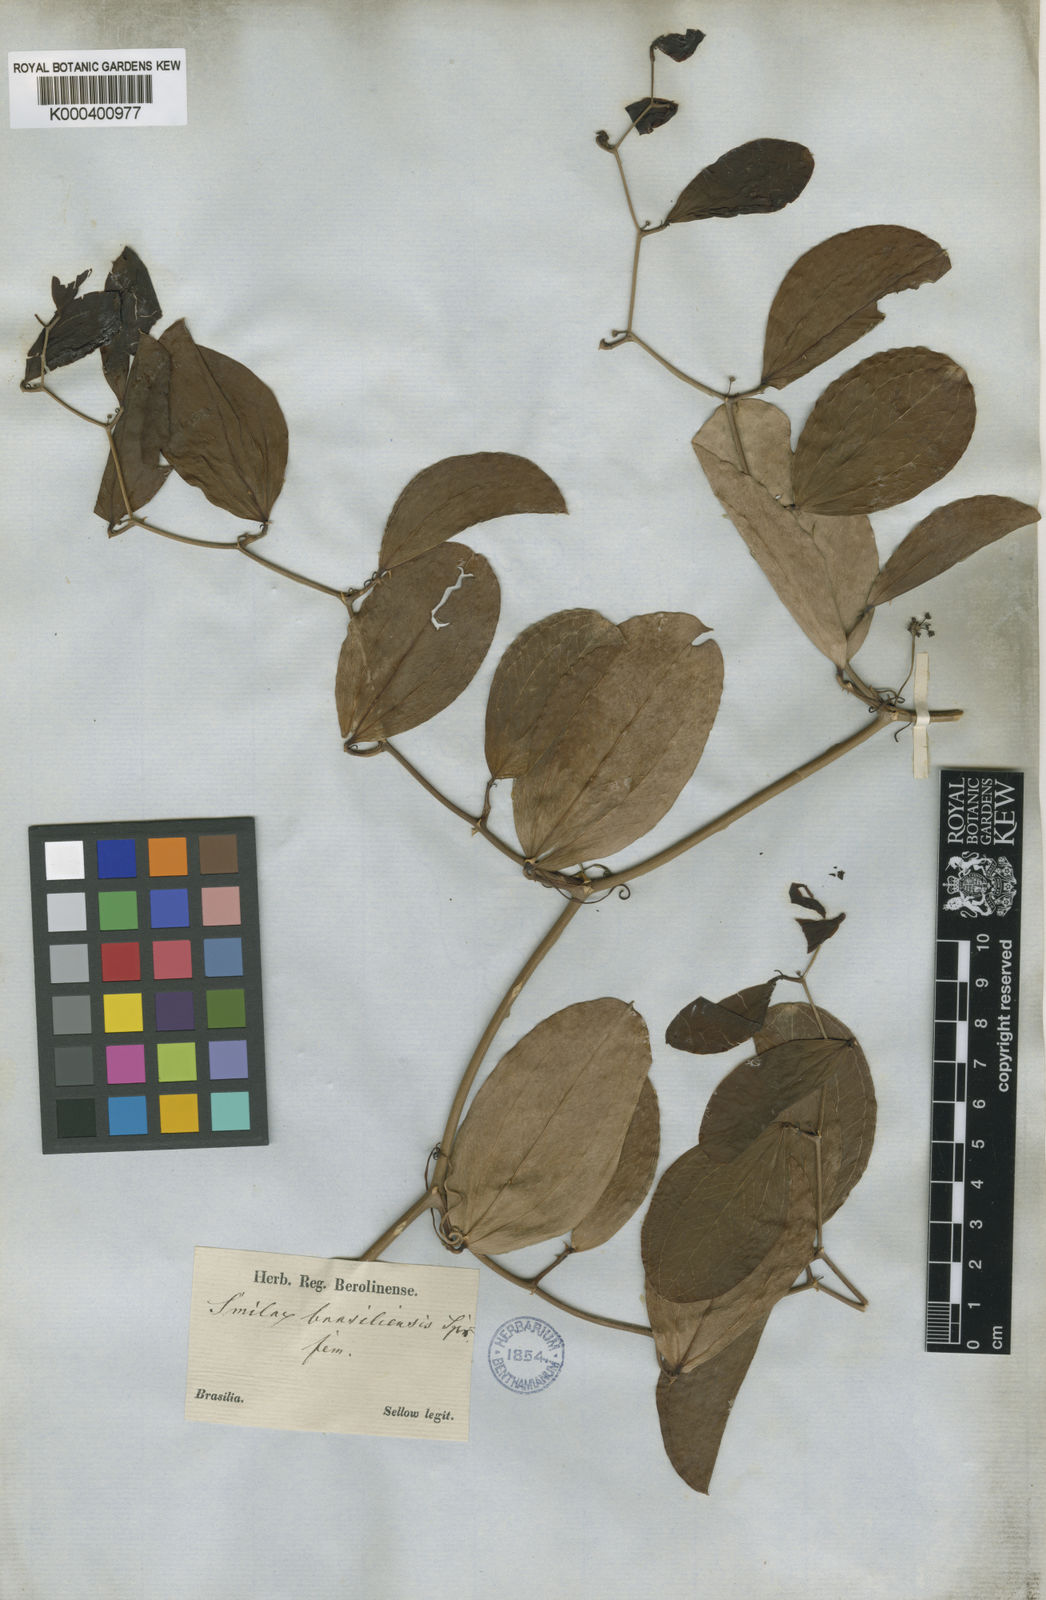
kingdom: Plantae
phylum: Tracheophyta
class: Liliopsida
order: Liliales
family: Smilacaceae
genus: Smilax
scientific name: Smilax brasiliensis
